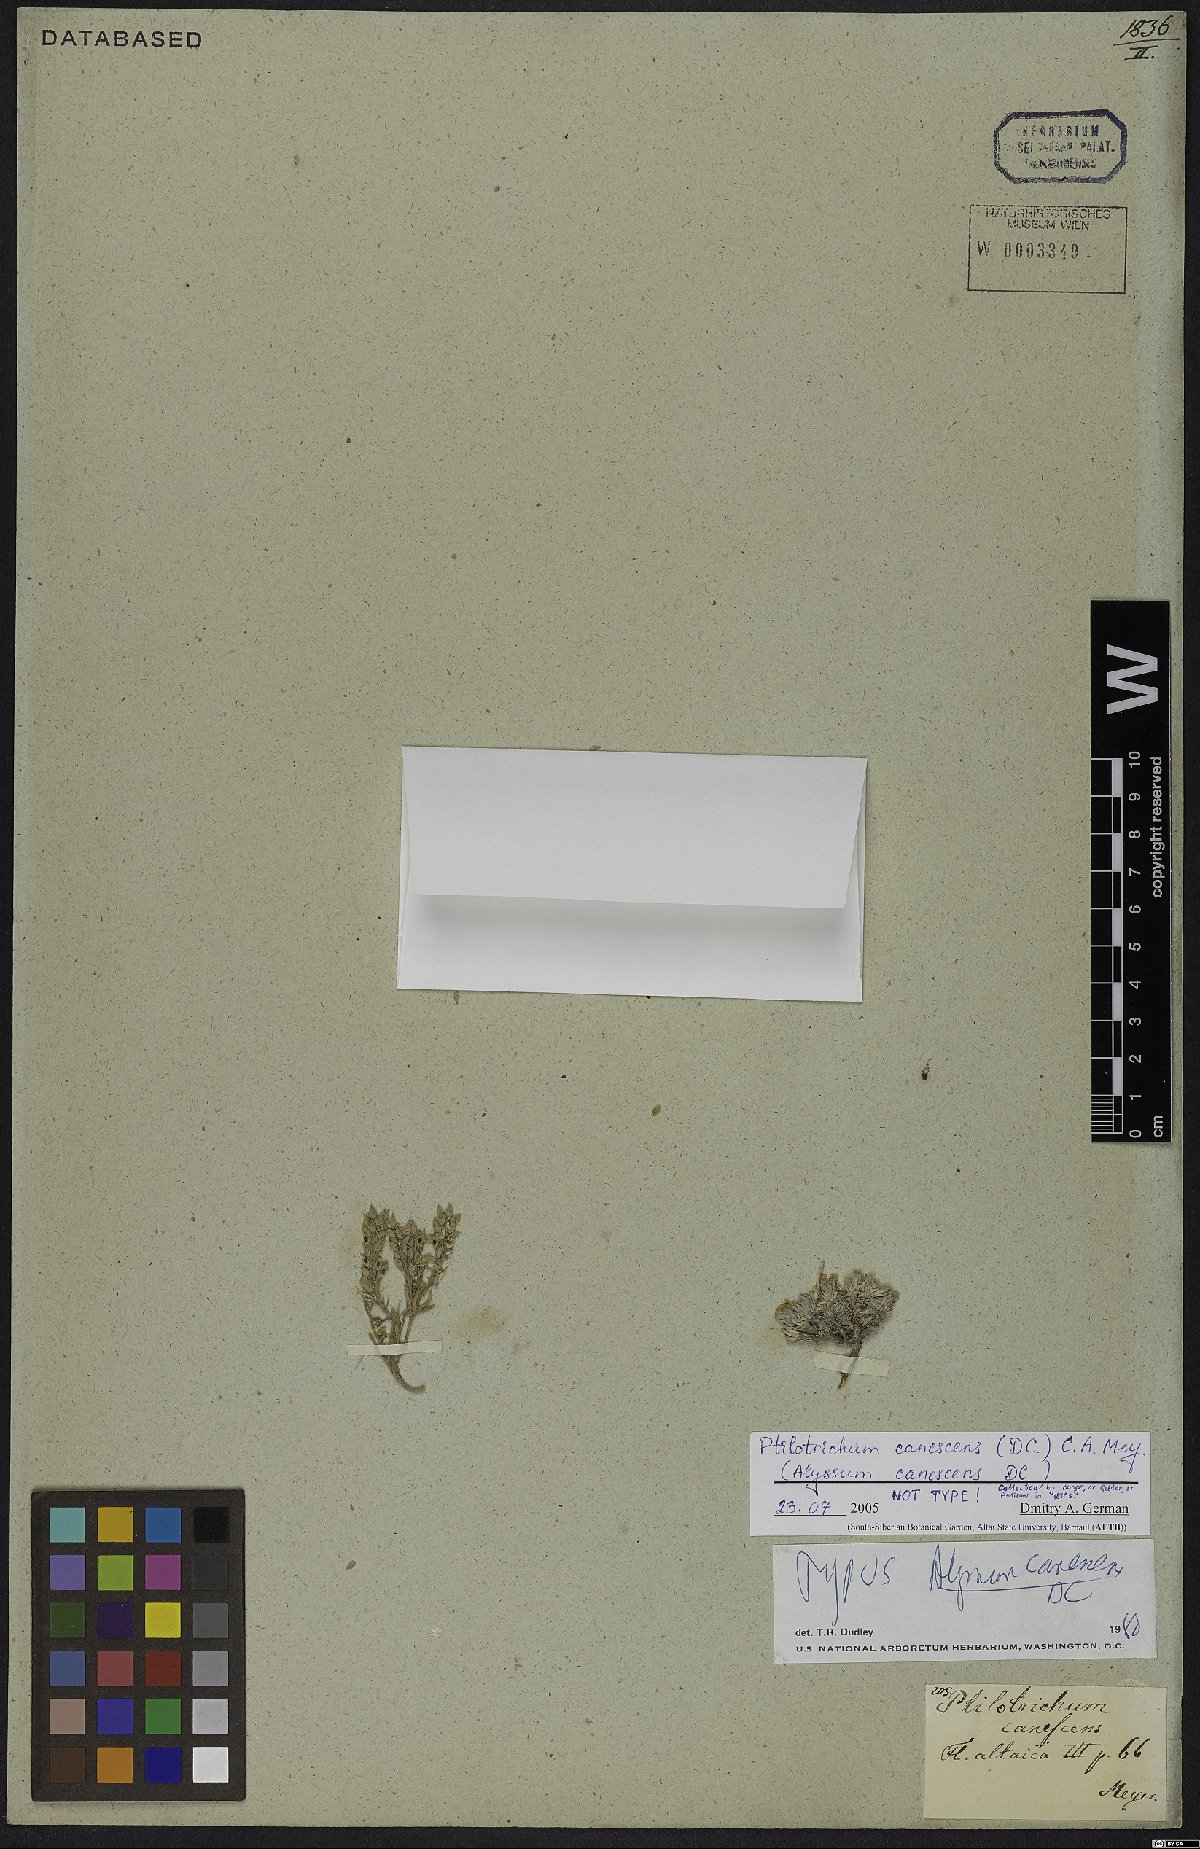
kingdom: Plantae
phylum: Tracheophyta
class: Magnoliopsida
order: Brassicales
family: Brassicaceae
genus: Stevenia
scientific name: Stevenia canescens
